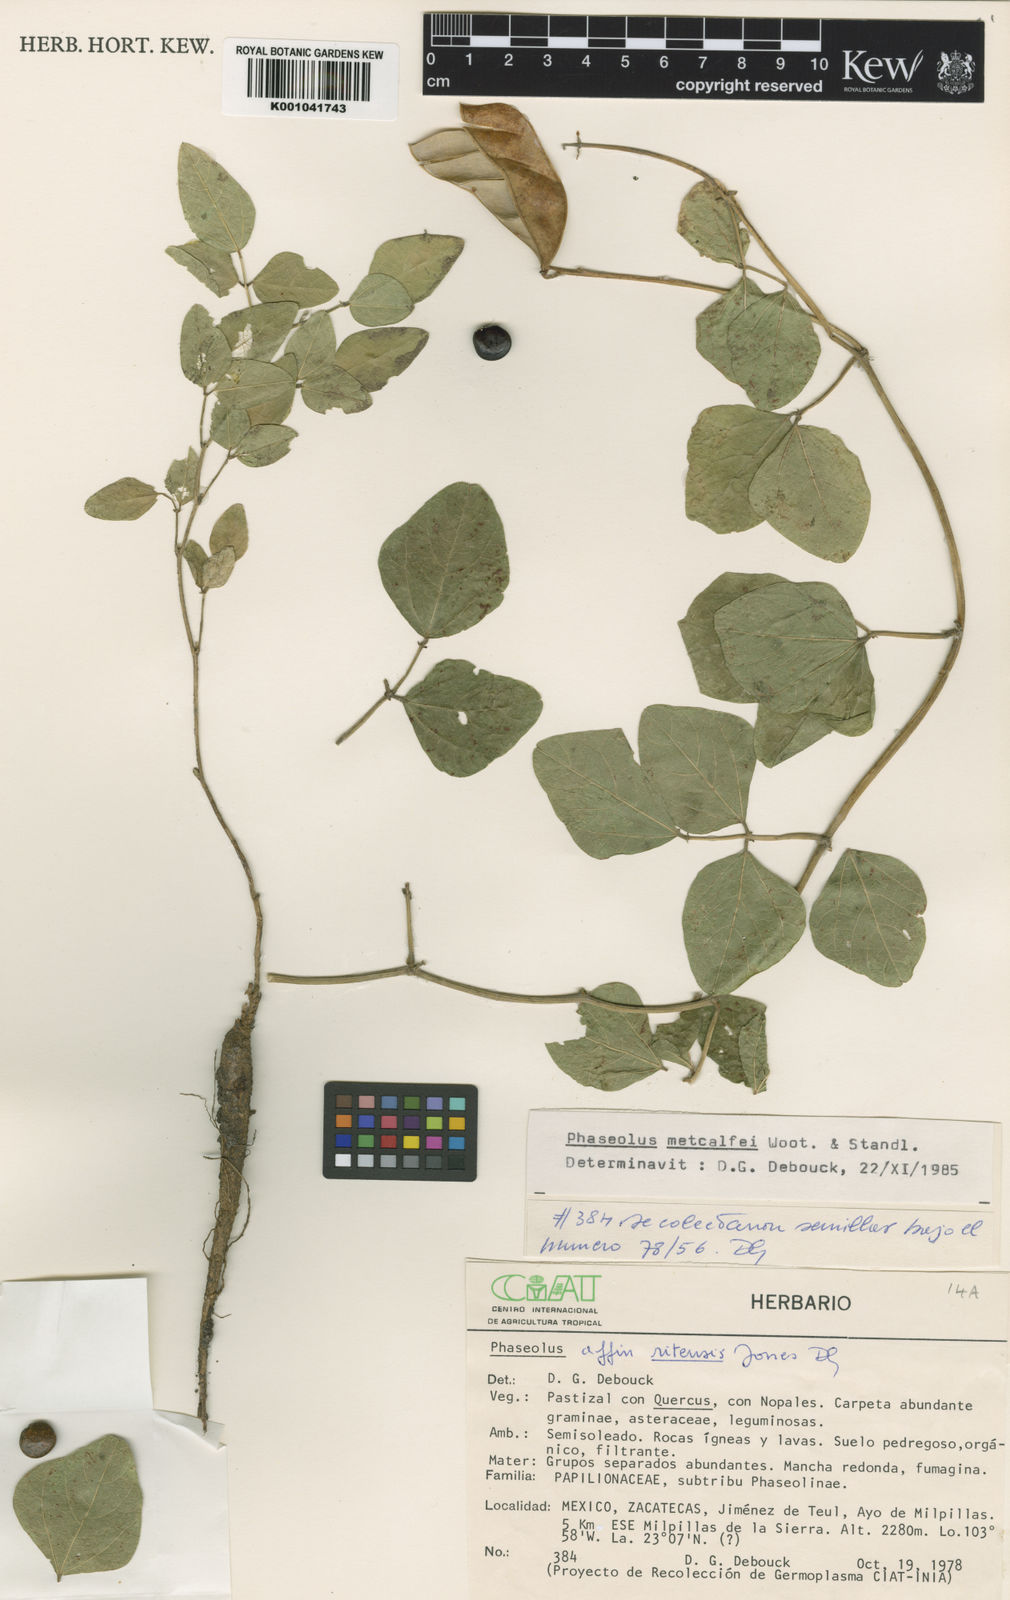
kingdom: Plantae
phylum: Tracheophyta
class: Magnoliopsida
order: Fabales
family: Fabaceae
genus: Phaseolus
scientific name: Phaseolus
